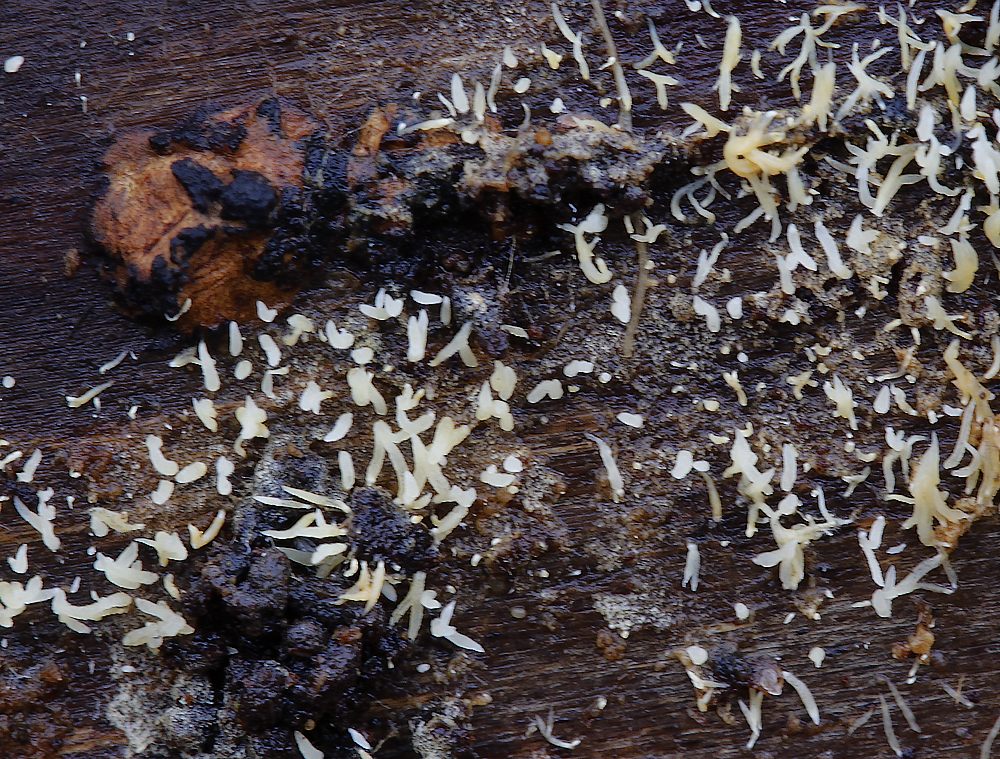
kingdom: Fungi
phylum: Basidiomycota
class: Agaricomycetes
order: Agaricales
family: Clavariaceae
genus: Mucronella
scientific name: Mucronella
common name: hængepig
